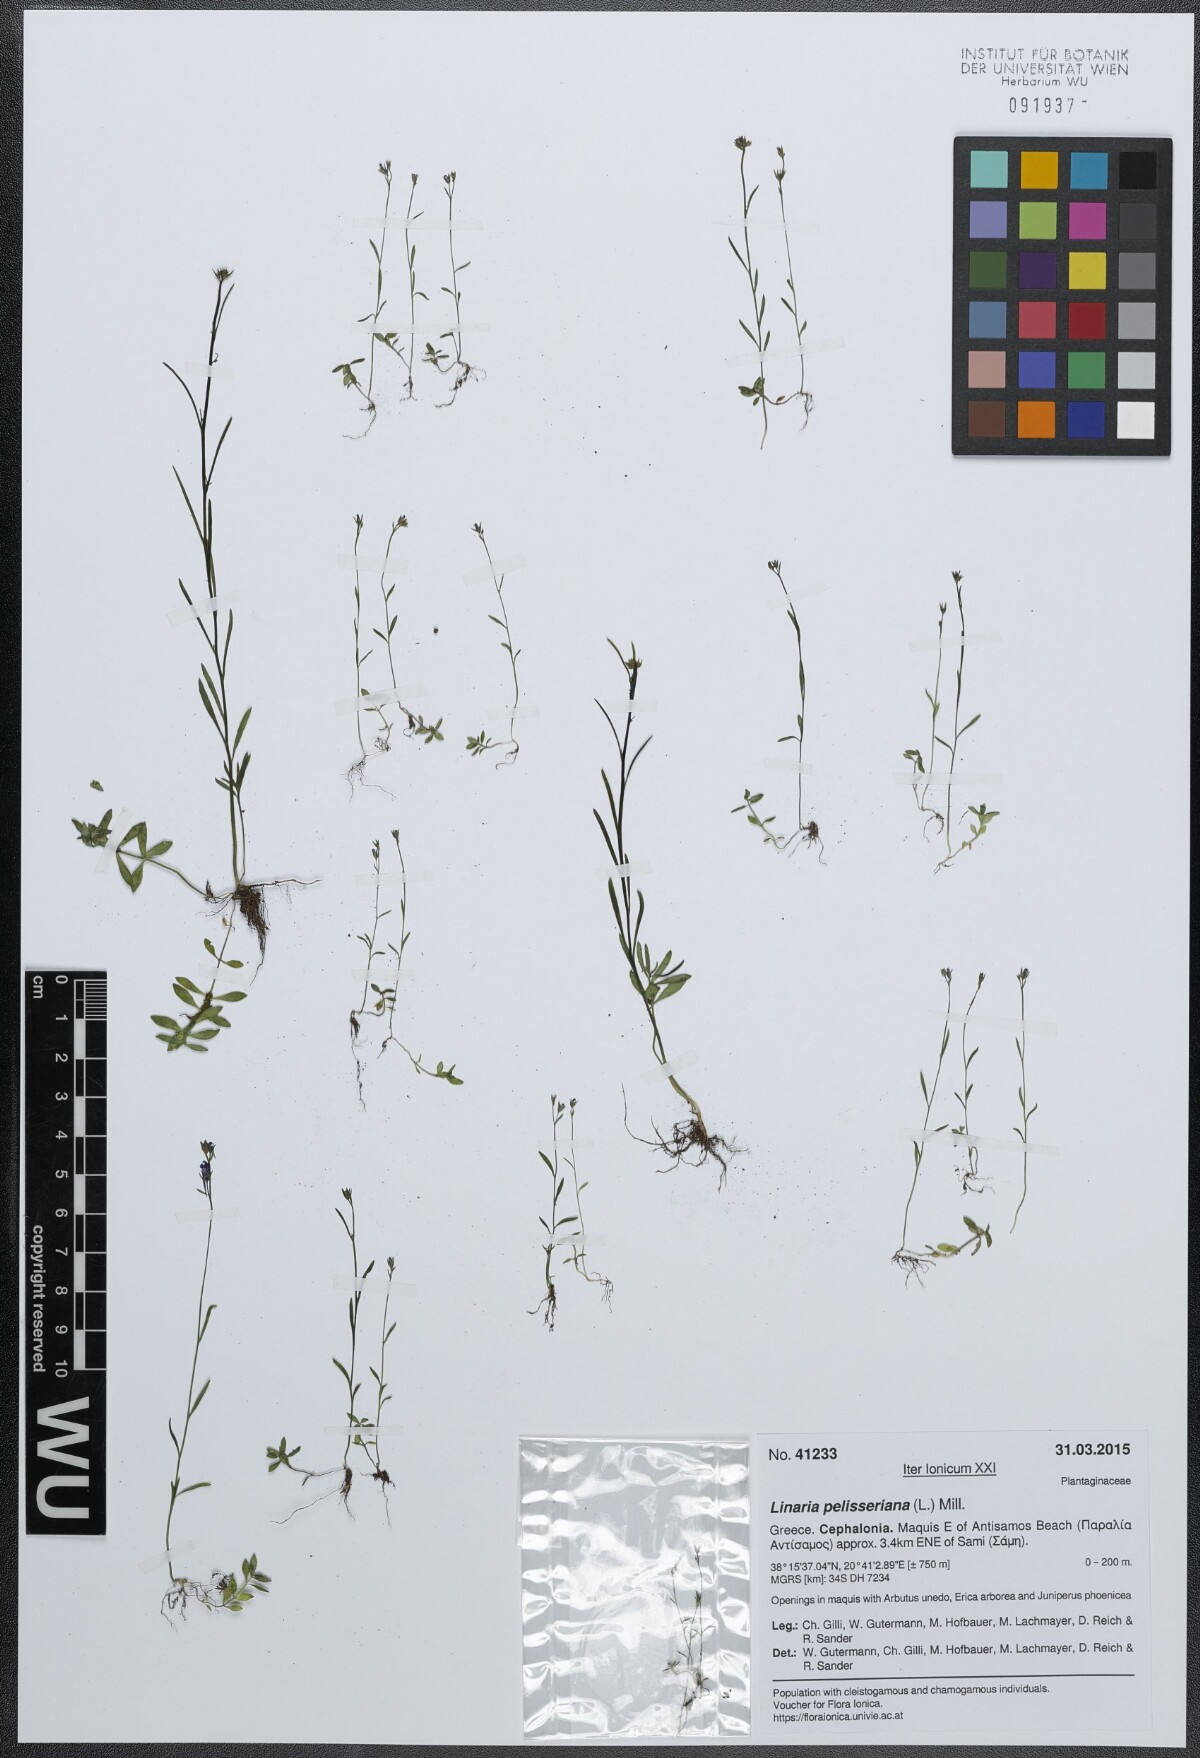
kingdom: Plantae
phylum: Tracheophyta
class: Magnoliopsida
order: Lamiales
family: Plantaginaceae
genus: Linaria
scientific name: Linaria pelisseriana
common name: Jersey toadflax
